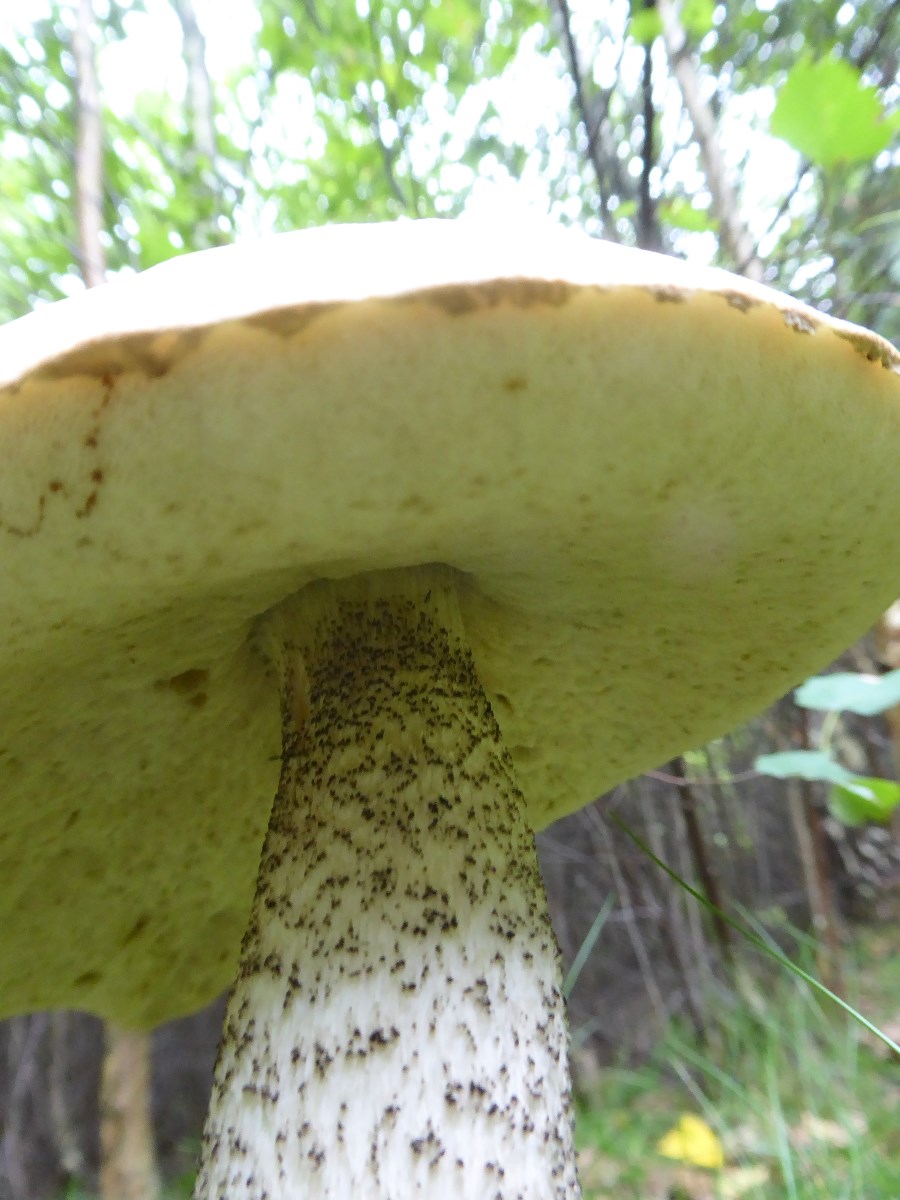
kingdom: Fungi
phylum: Basidiomycota
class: Agaricomycetes
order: Boletales
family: Boletaceae
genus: Leccinum
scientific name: Leccinum versipelle
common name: orange skælrørhat
